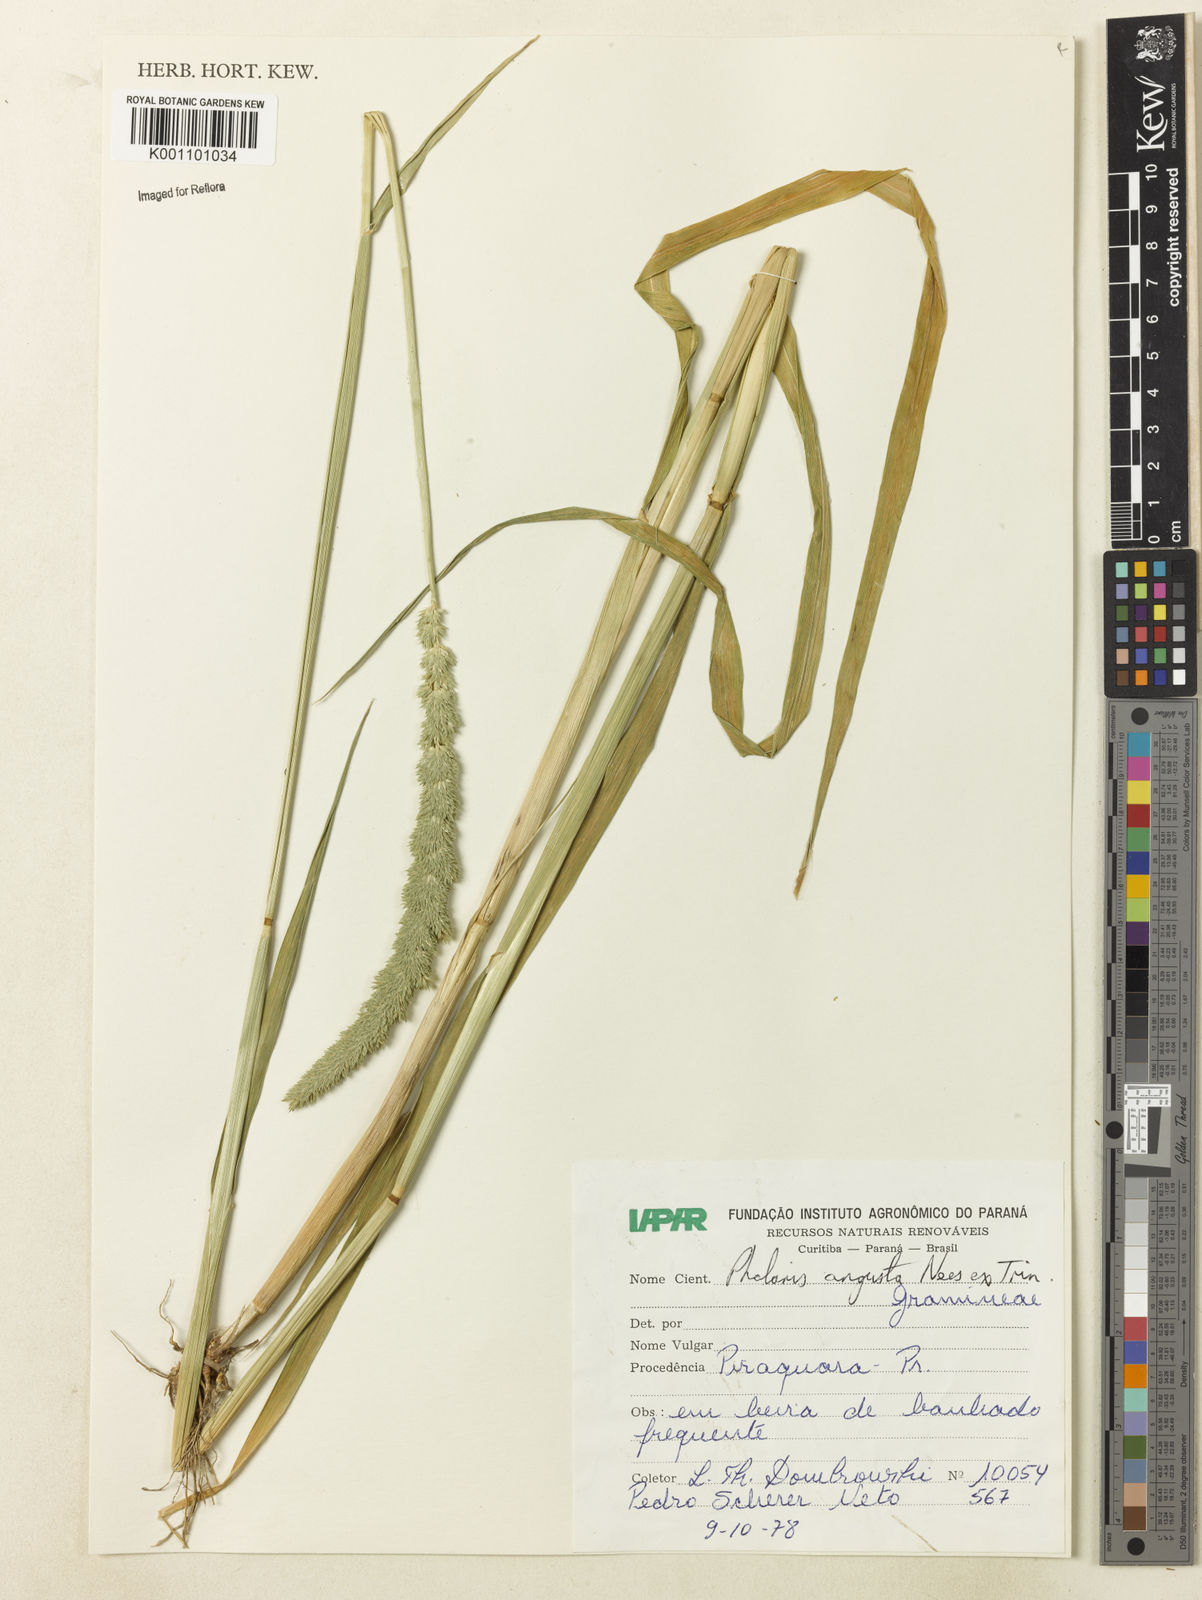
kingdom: Plantae
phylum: Tracheophyta
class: Liliopsida
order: Poales
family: Poaceae
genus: Phalaris
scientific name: Phalaris angusta
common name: Narrow canary grass
